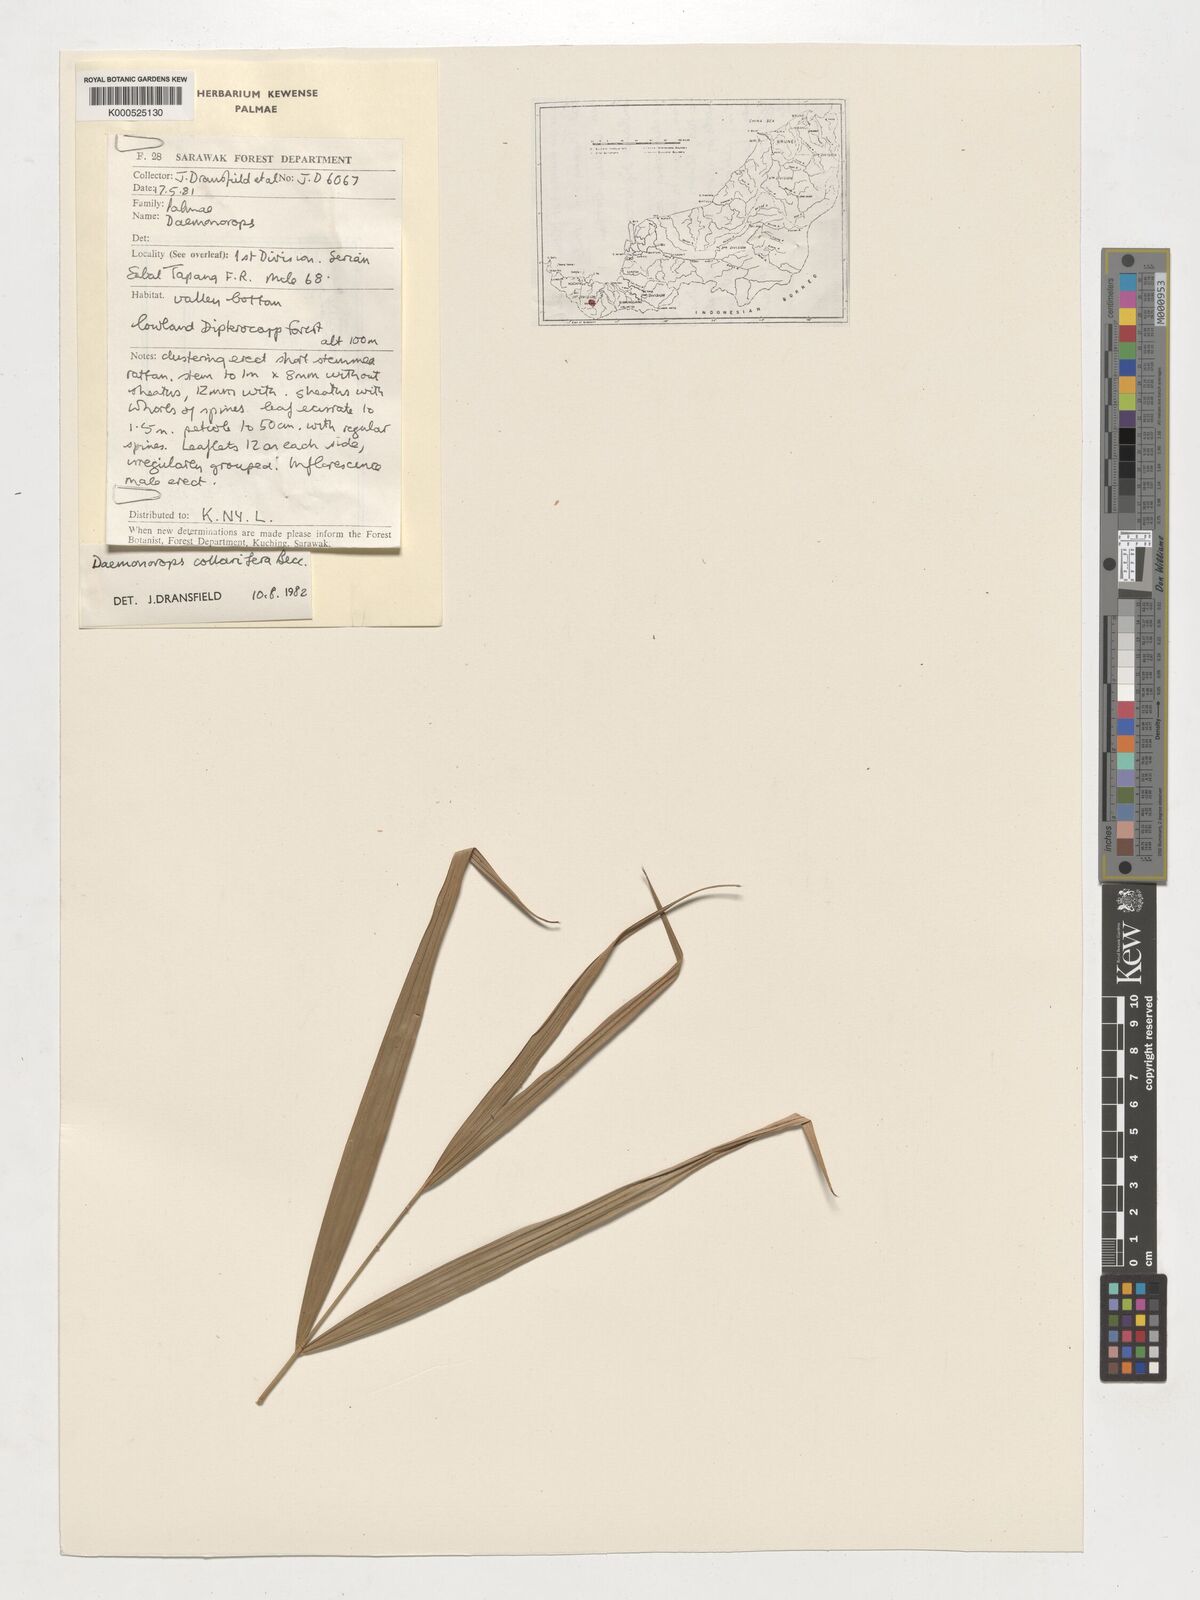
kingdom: Plantae
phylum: Tracheophyta
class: Liliopsida
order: Arecales
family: Arecaceae
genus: Calamus
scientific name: Calamus geniculatus
